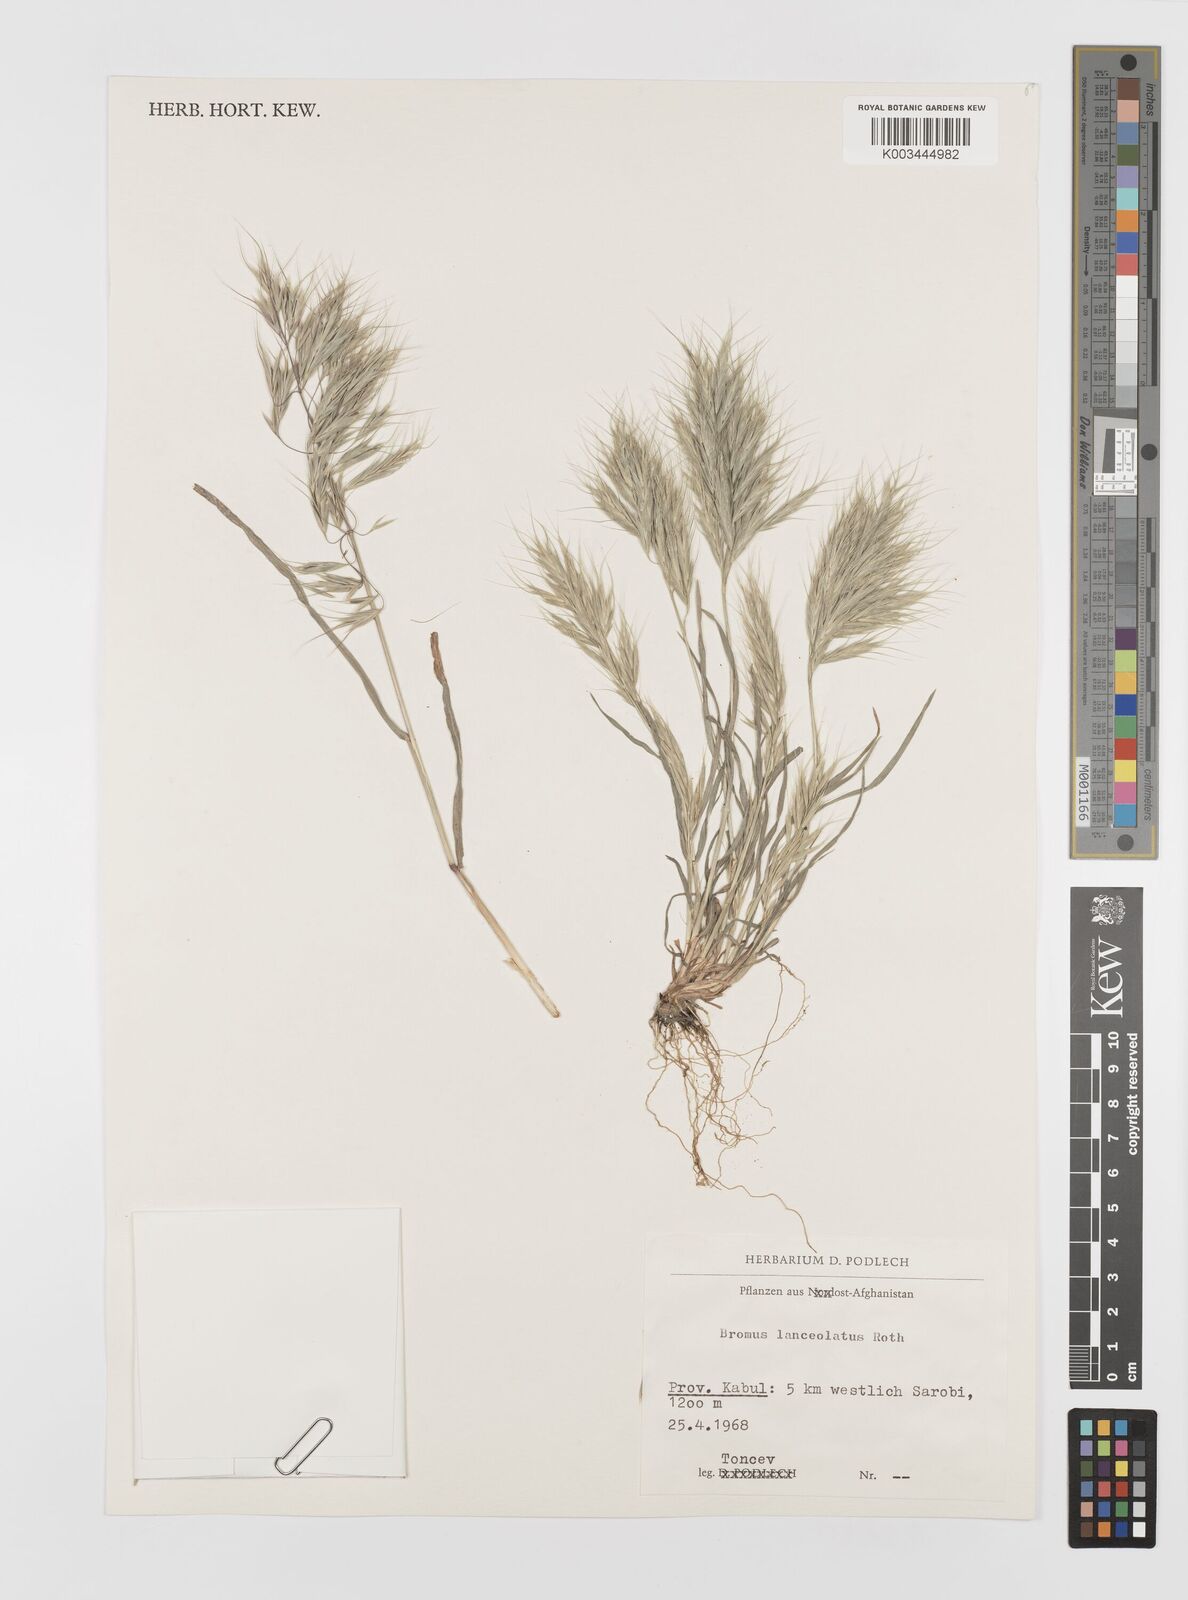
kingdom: Plantae
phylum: Tracheophyta
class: Liliopsida
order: Poales
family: Poaceae
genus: Bromus
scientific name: Bromus lanceolatus
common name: Mediterranean brome
